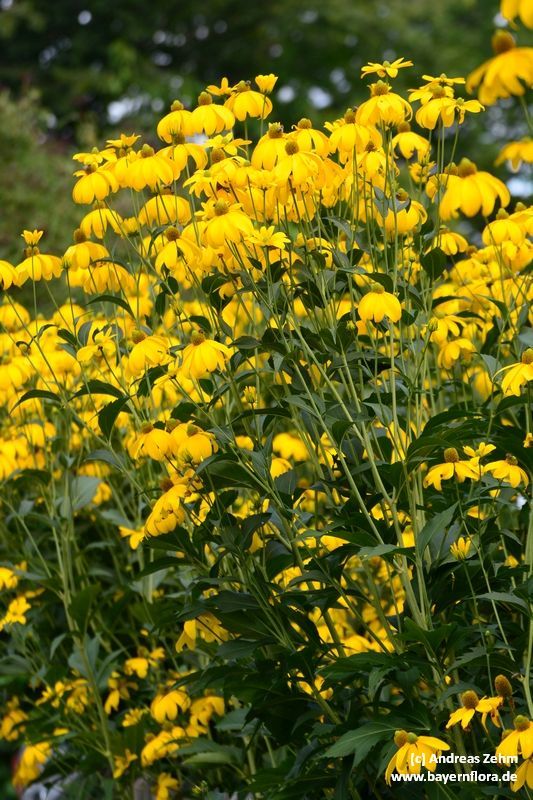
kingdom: Plantae
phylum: Tracheophyta
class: Magnoliopsida
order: Asterales
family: Asteraceae
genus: Rudbeckia
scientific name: Rudbeckia laciniata
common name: Coneflower
